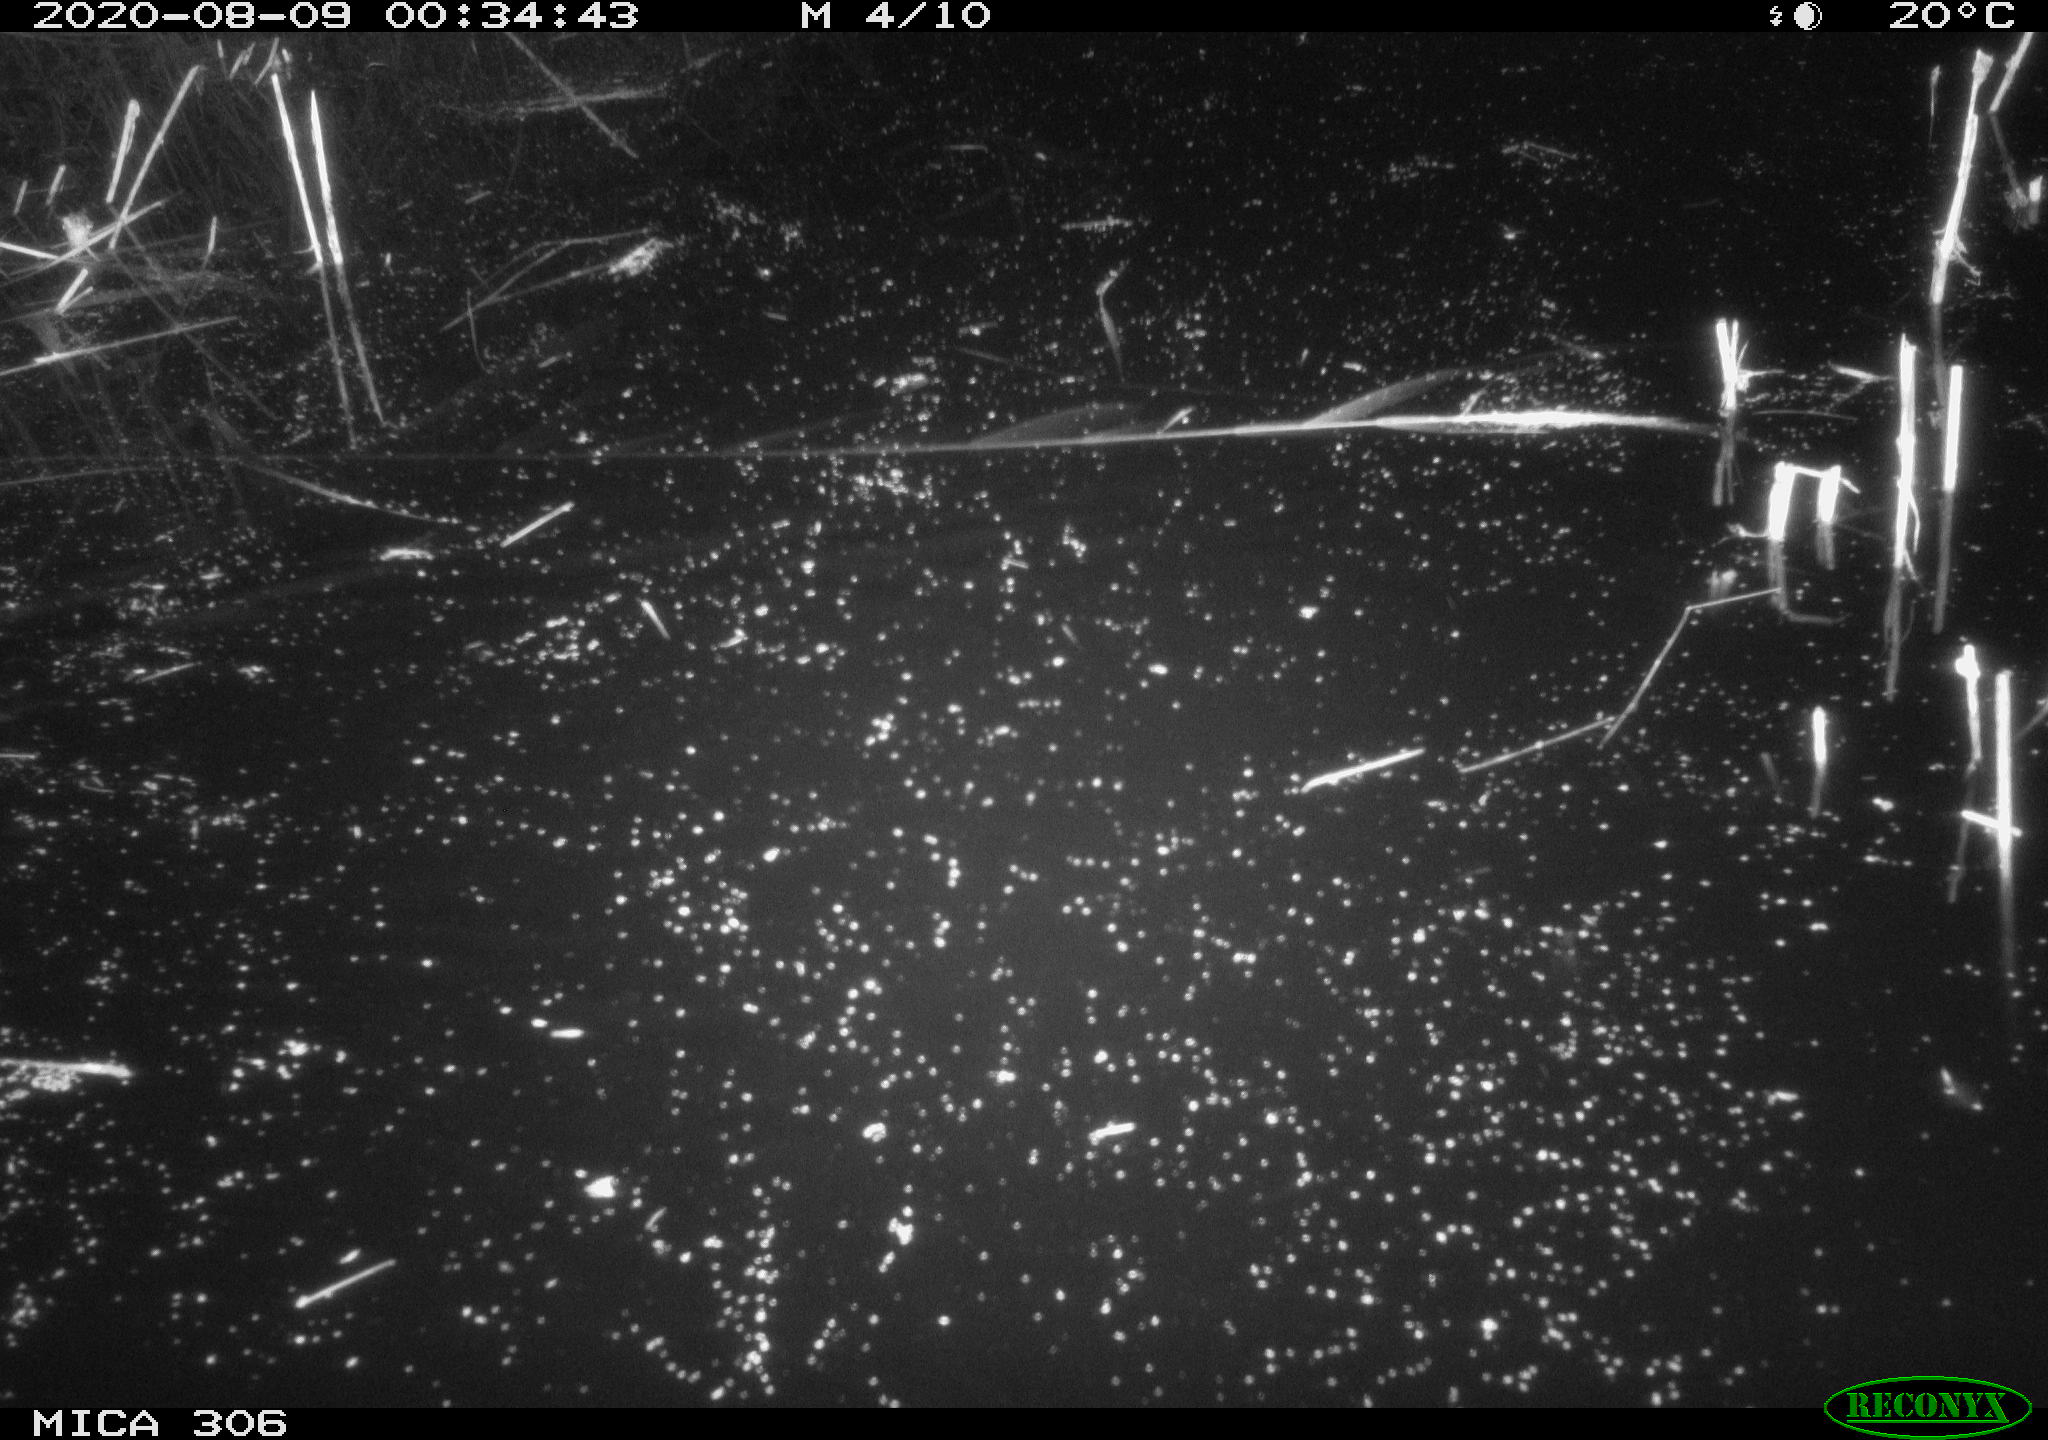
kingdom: Animalia
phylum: Chordata
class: Mammalia
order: Rodentia
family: Muridae
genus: Rattus
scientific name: Rattus norvegicus
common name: Brown rat
